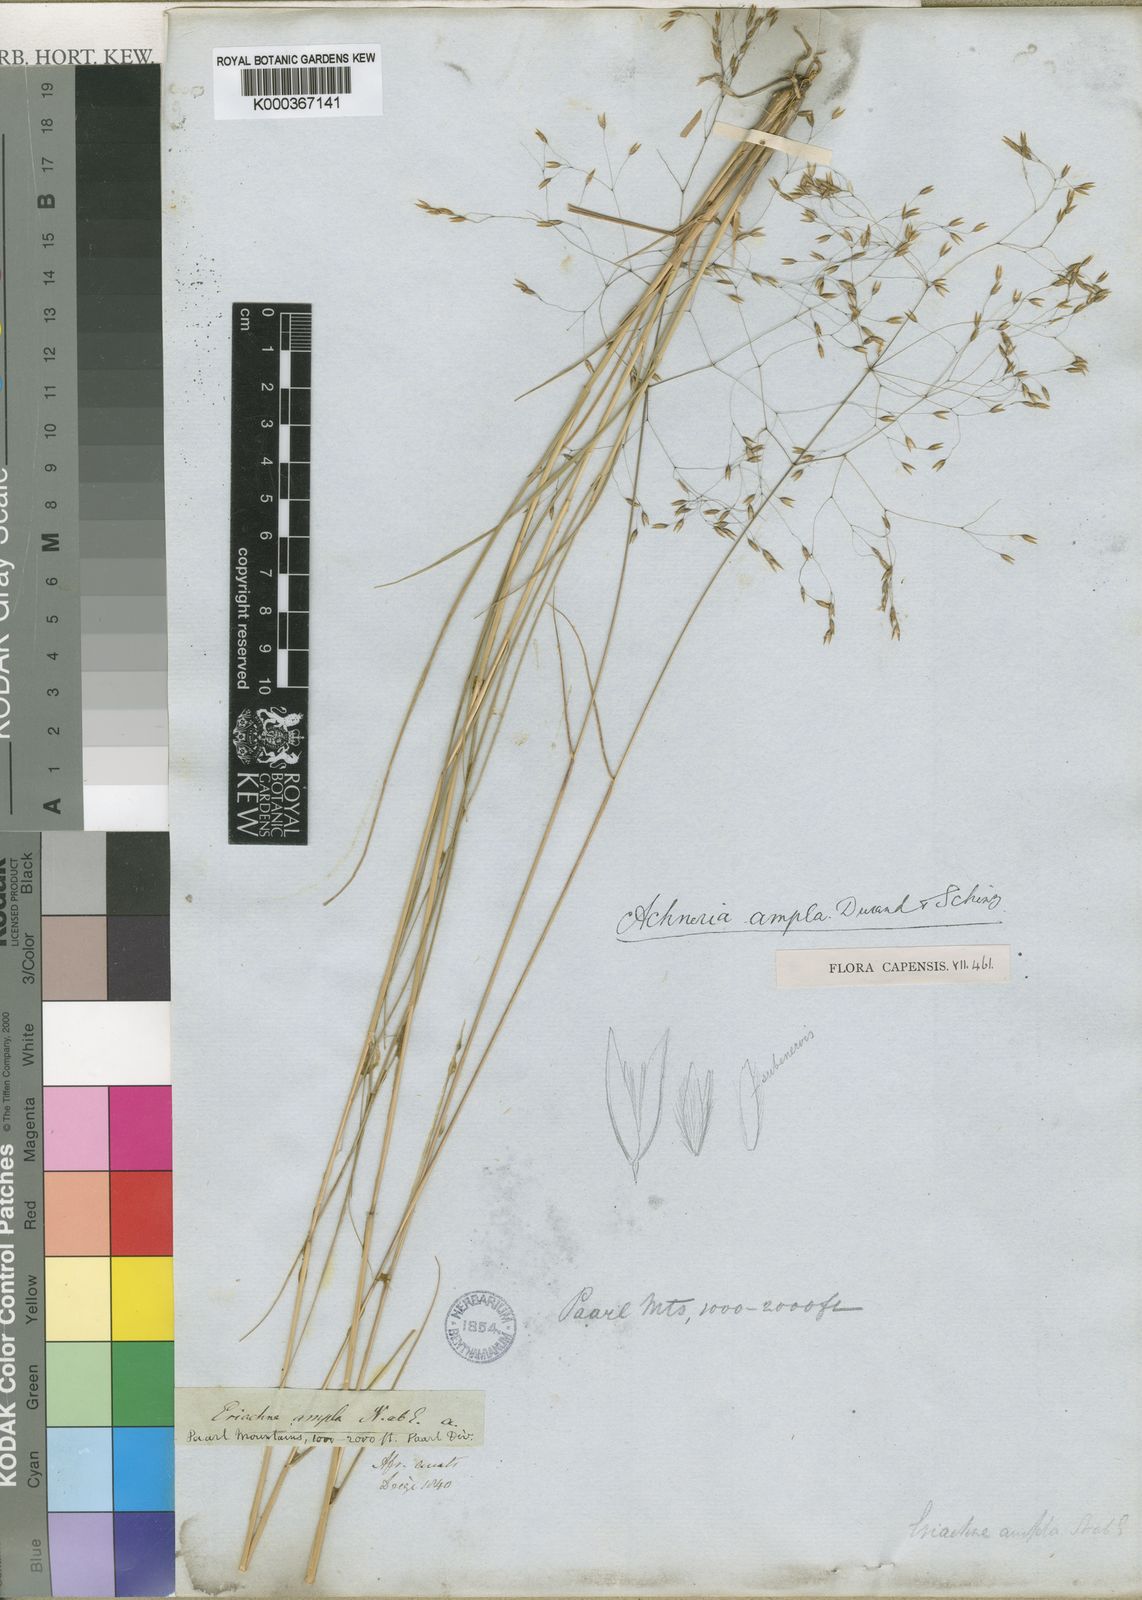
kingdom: Plantae
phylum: Tracheophyta
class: Liliopsida
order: Poales
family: Poaceae
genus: Pentameris
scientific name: Pentameris ampla
